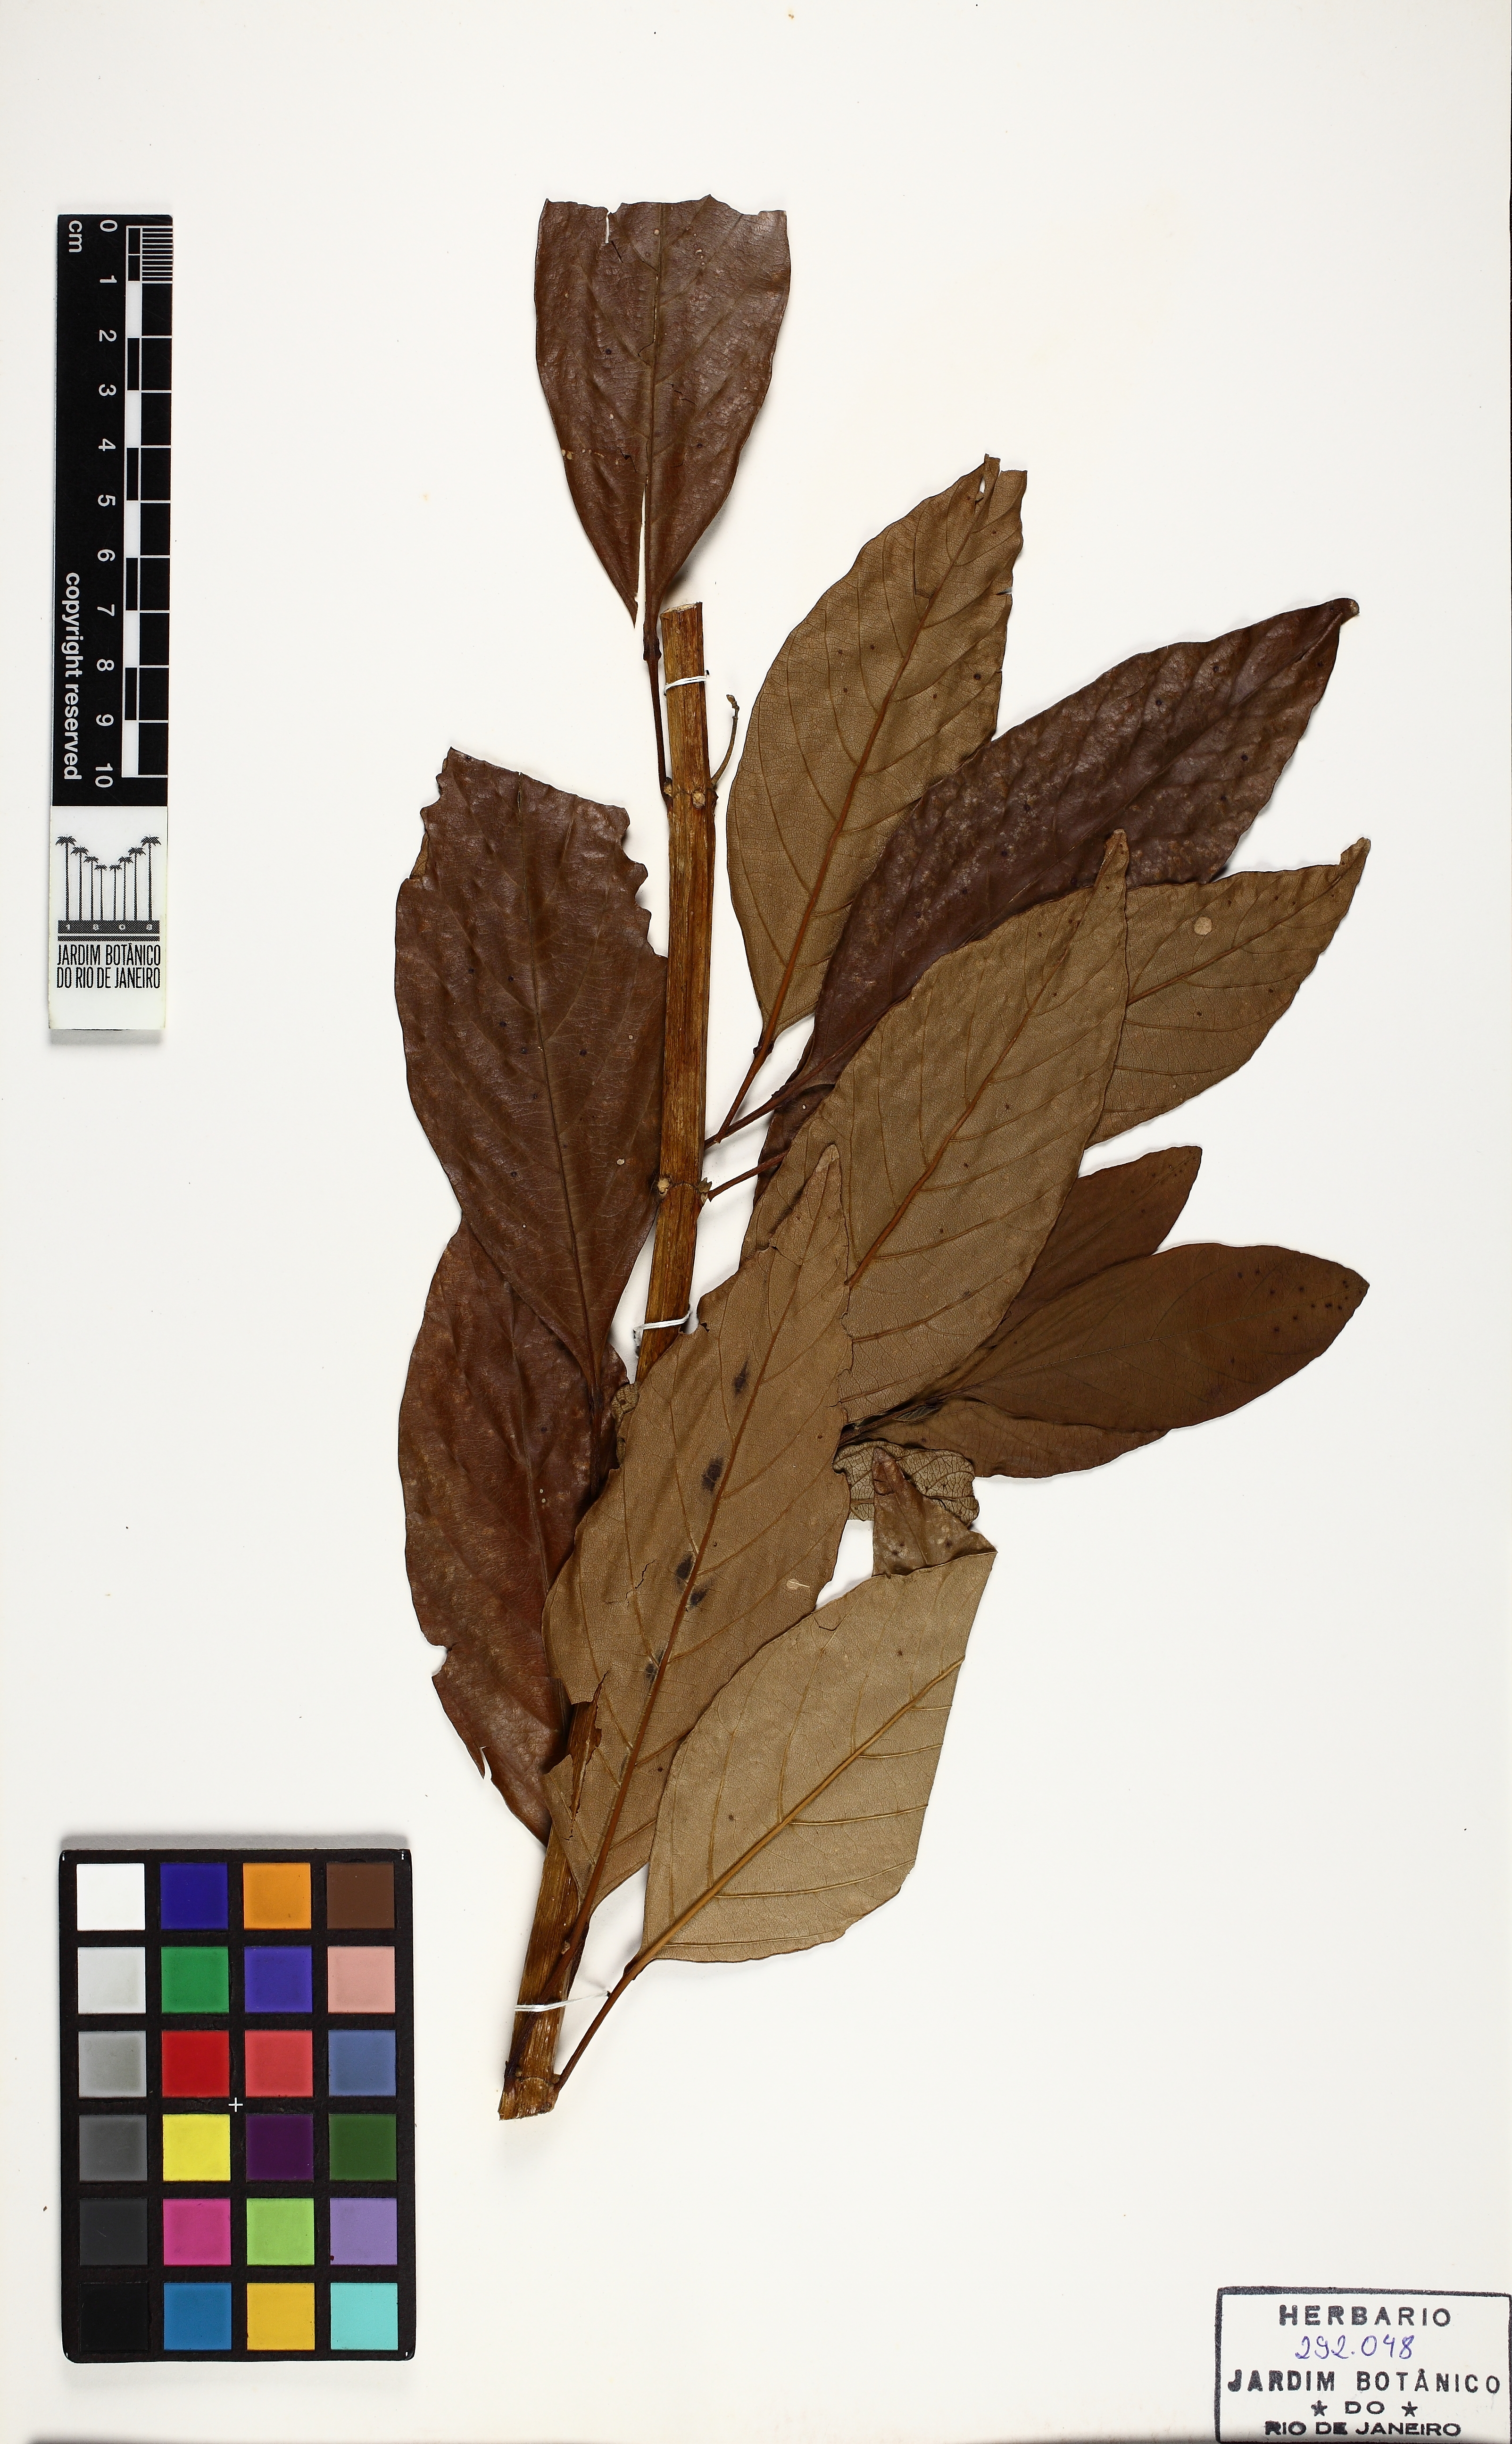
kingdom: Plantae
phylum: Tracheophyta
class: Magnoliopsida
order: Lamiales
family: Verbenaceae
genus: Citharexylum
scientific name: Citharexylum myrianthum
